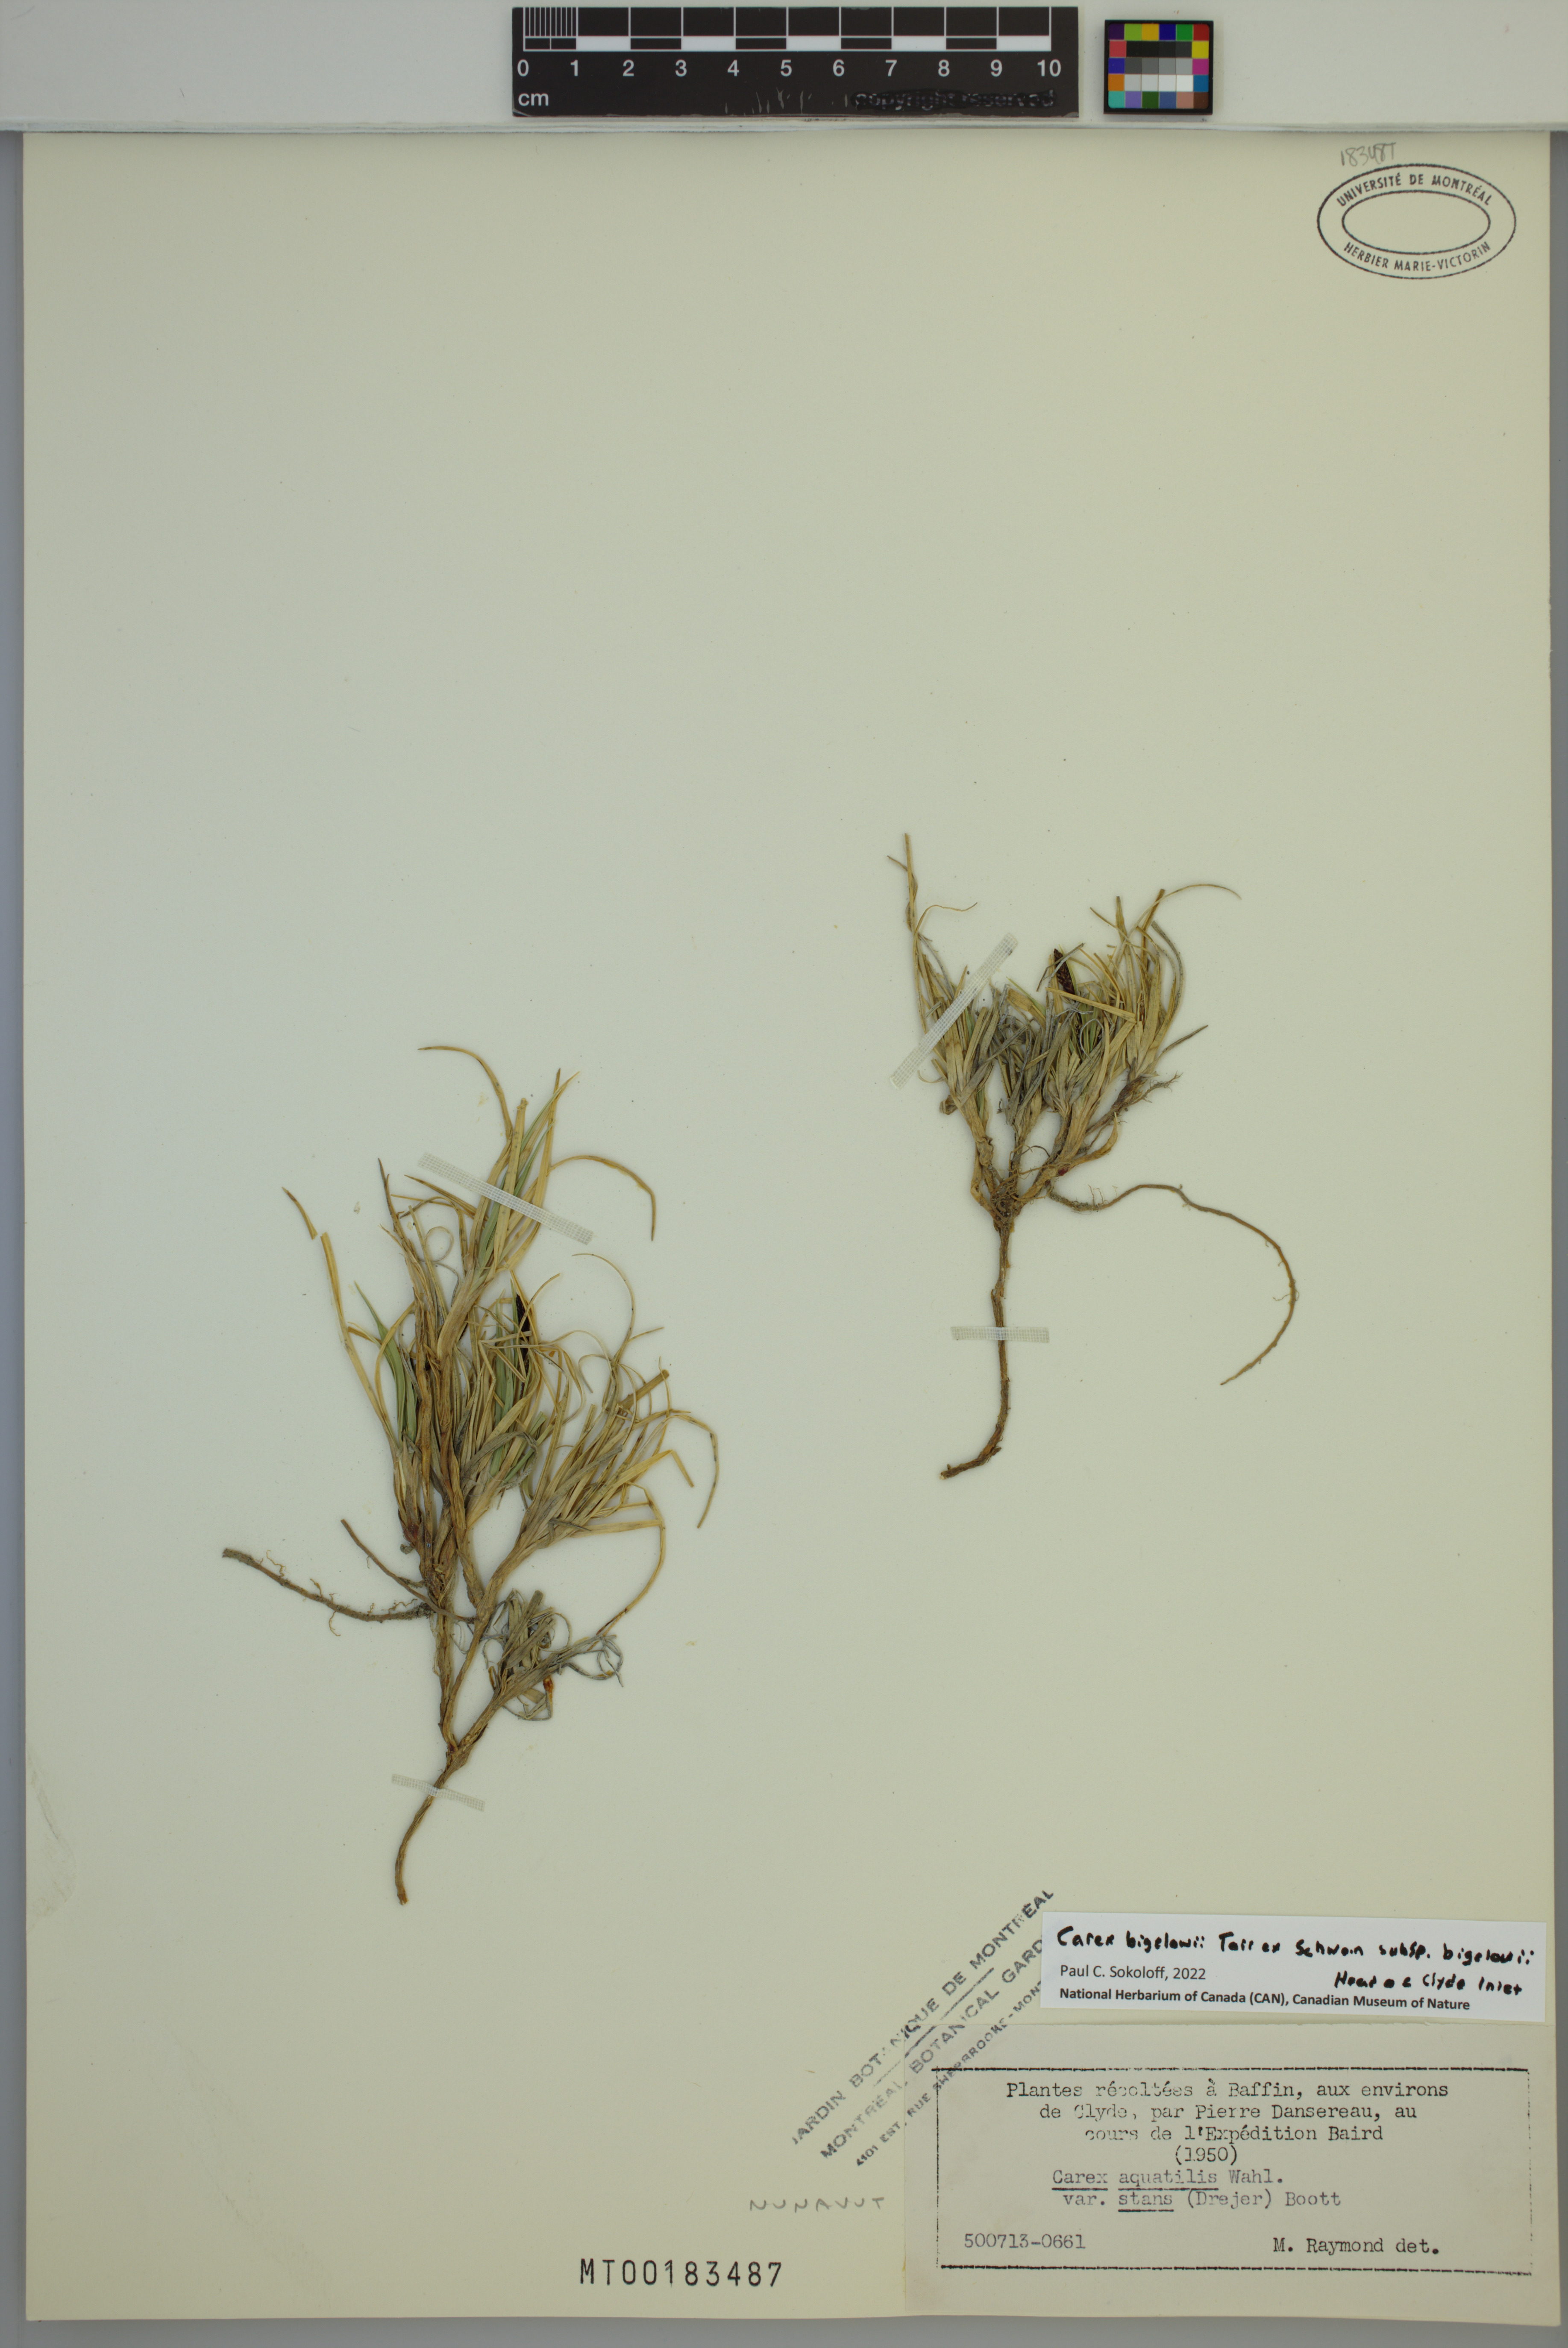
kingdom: Plantae
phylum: Tracheophyta
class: Liliopsida
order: Poales
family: Cyperaceae
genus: Carex
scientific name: Carex bigelowii
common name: Stiff sedge
